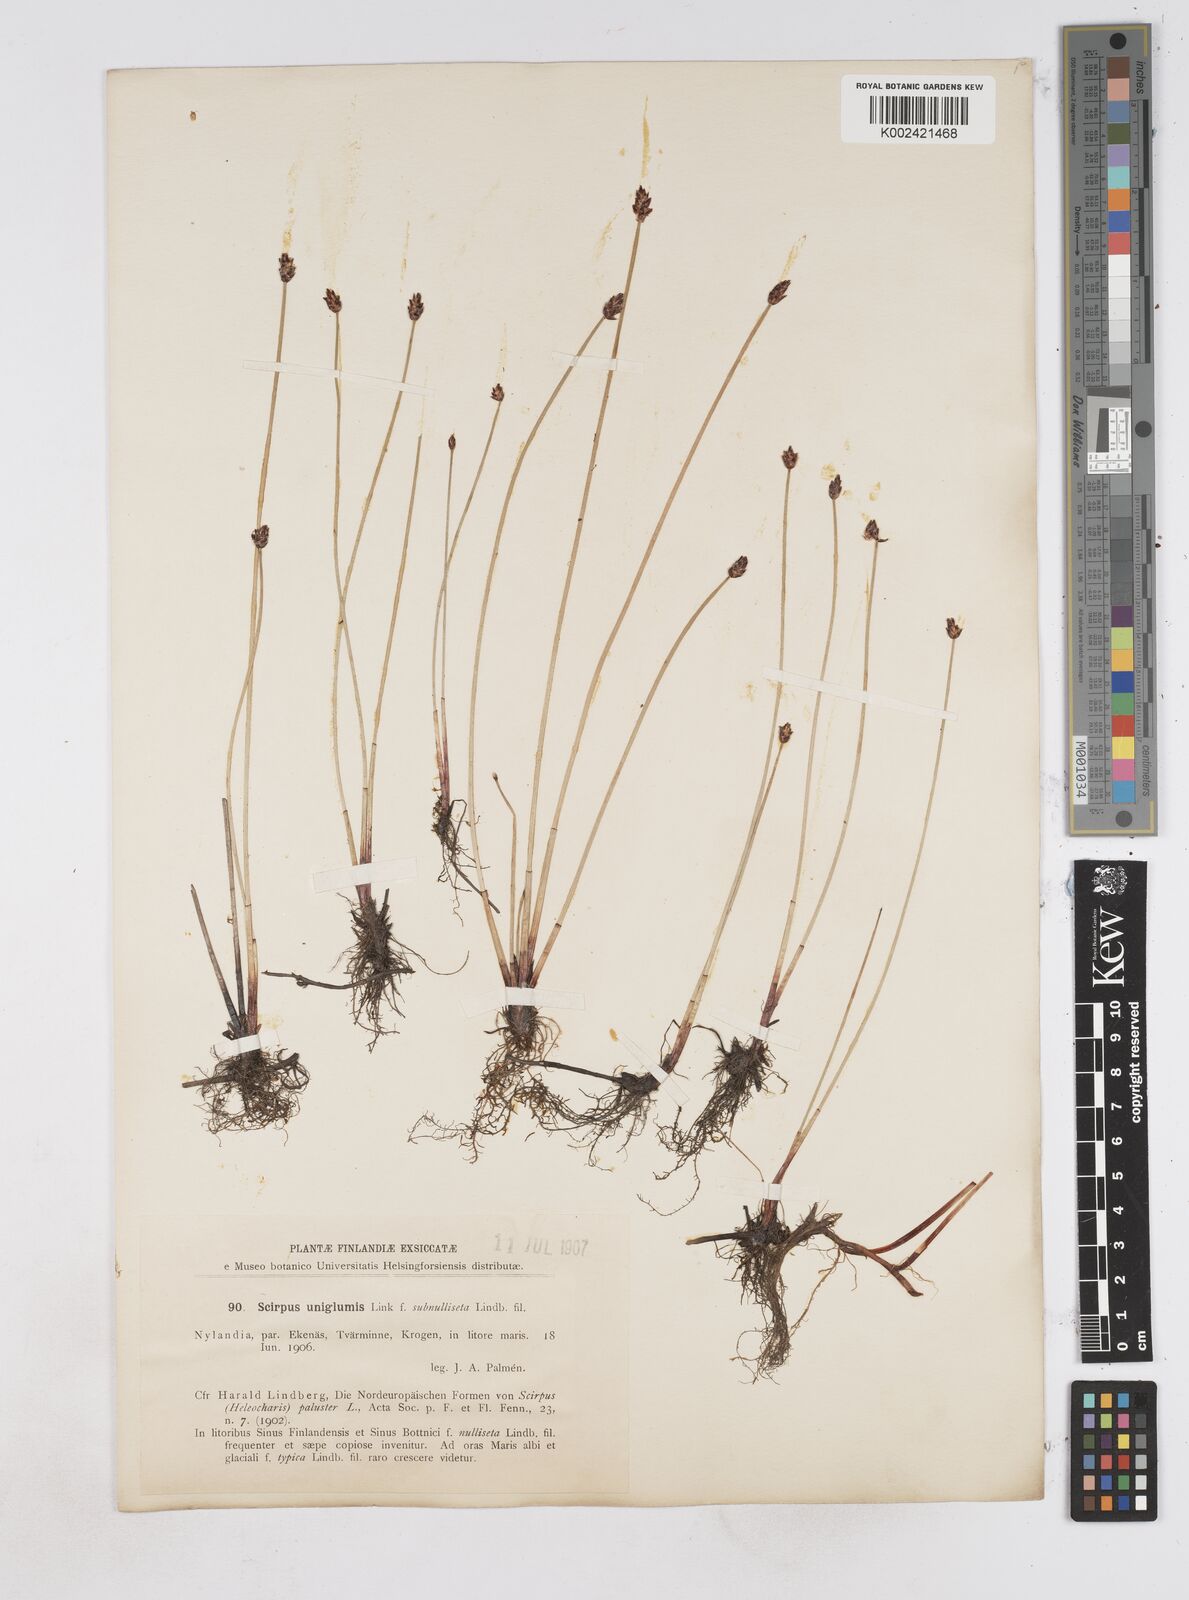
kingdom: Plantae
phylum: Tracheophyta
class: Liliopsida
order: Poales
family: Cyperaceae
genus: Eleocharis
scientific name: Eleocharis uniglumis
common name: Slender spike-rush
